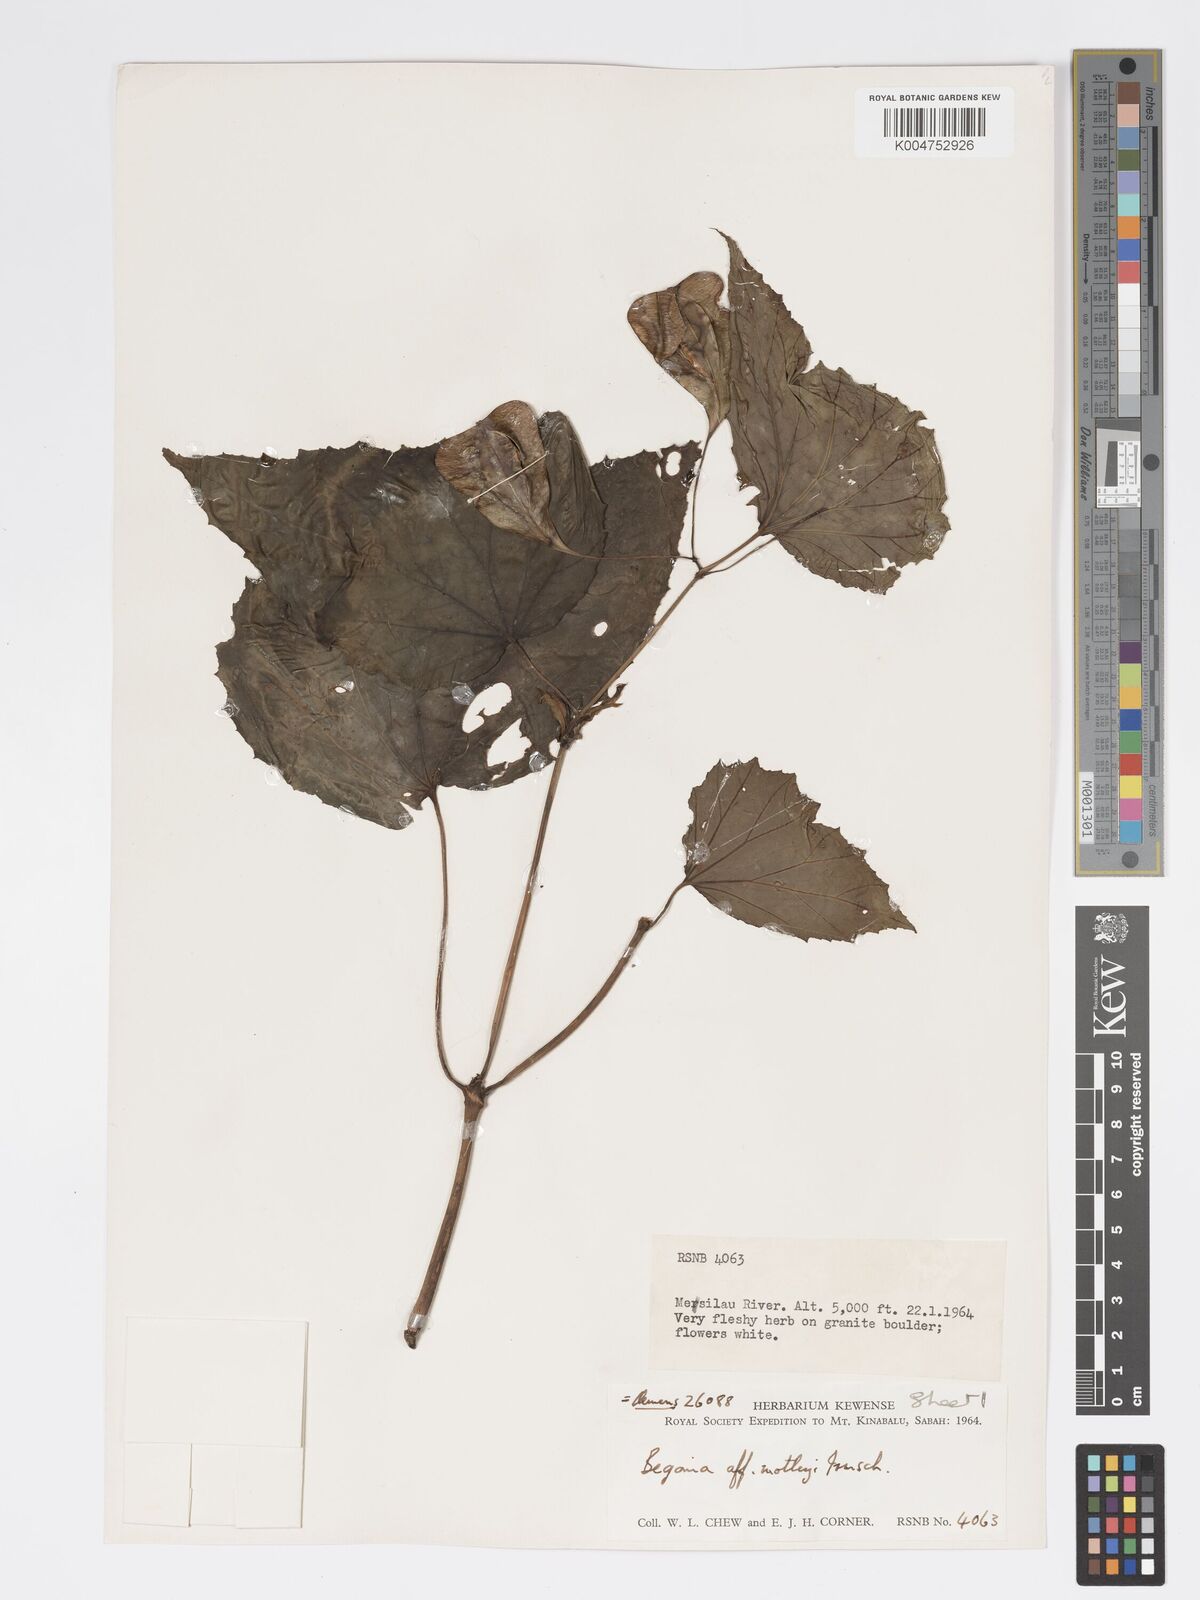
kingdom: Plantae
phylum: Tracheophyta
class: Magnoliopsida
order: Cucurbitales
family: Begoniaceae
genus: Begonia
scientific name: Begonia
